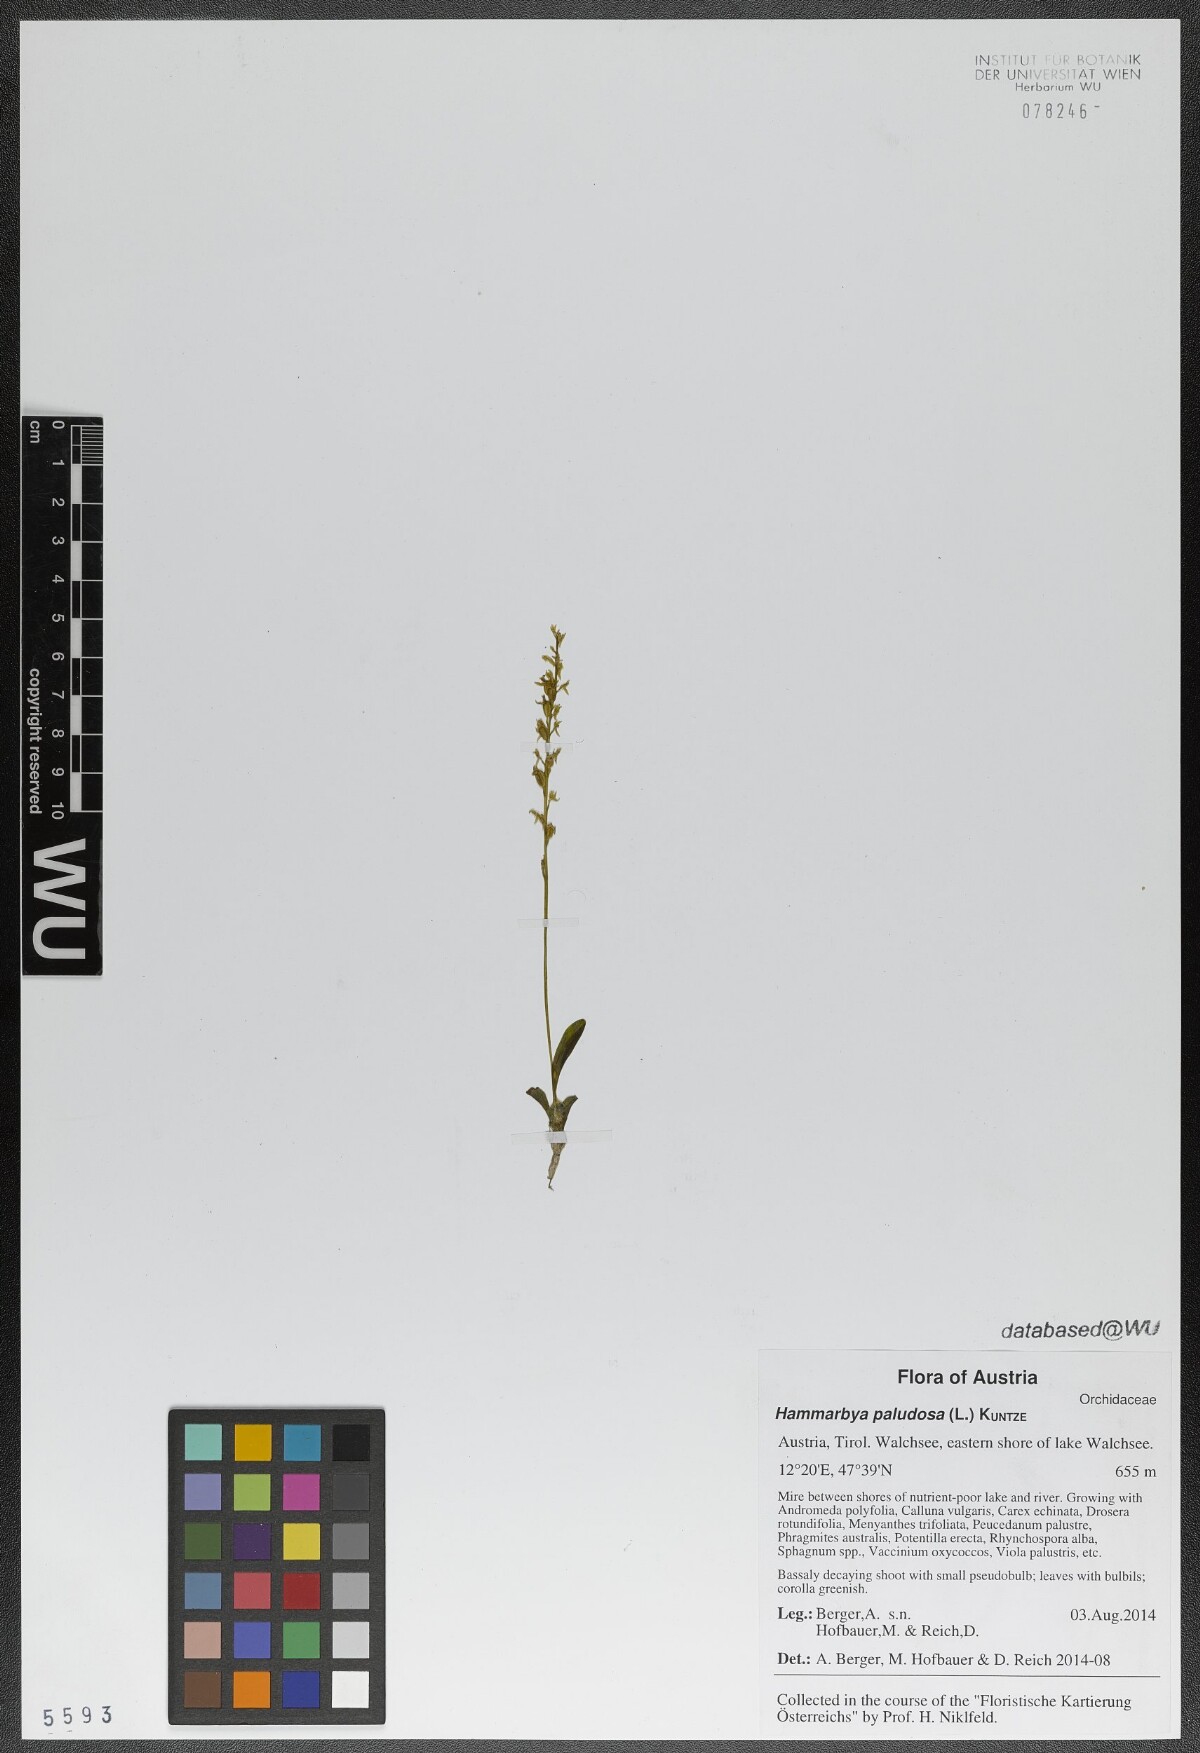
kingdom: Plantae
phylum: Tracheophyta
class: Liliopsida
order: Asparagales
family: Orchidaceae
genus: Hammarbya
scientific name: Hammarbya paludosa
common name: Bog orchid
